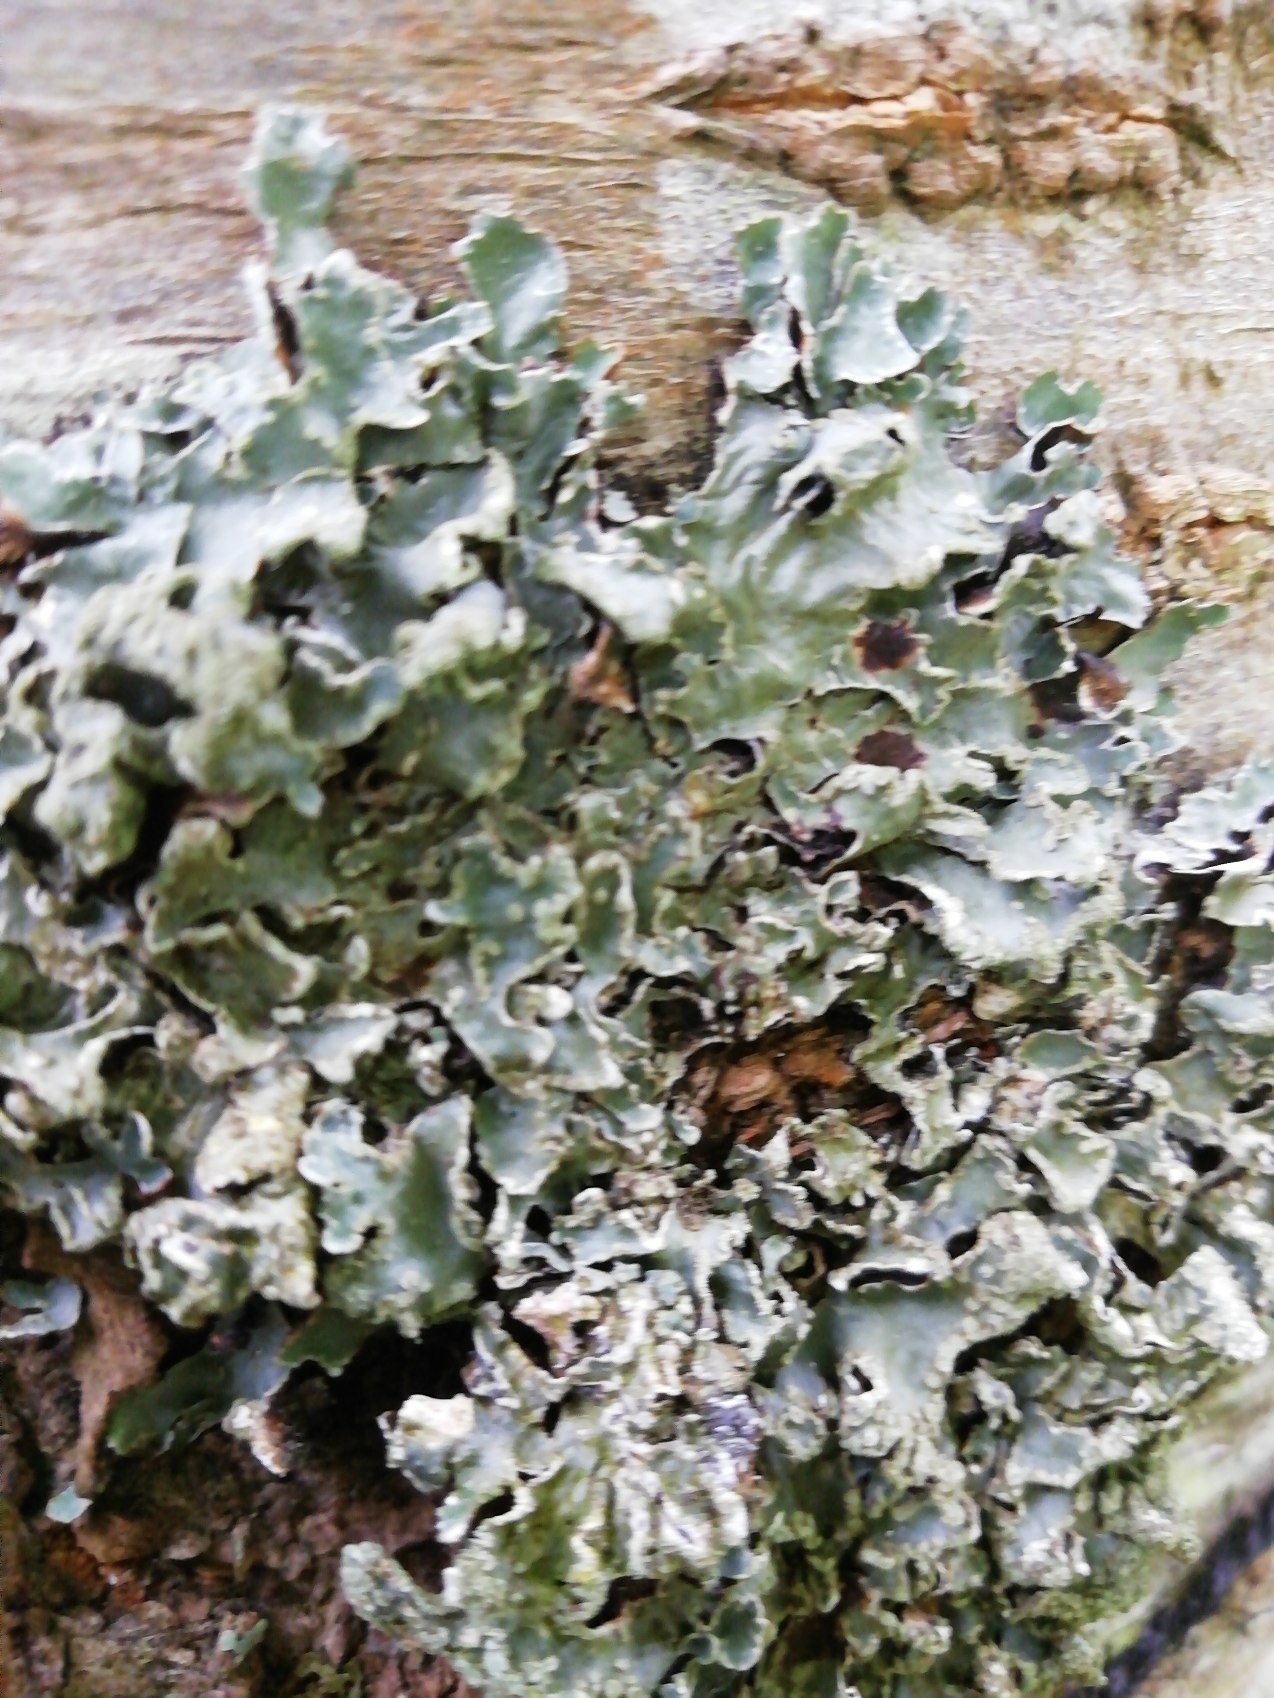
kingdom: Fungi
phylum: Ascomycota
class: Lecanoromycetes
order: Lecanorales
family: Parmeliaceae
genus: Parmelia
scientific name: Parmelia sulcata
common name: Rynket skållav
